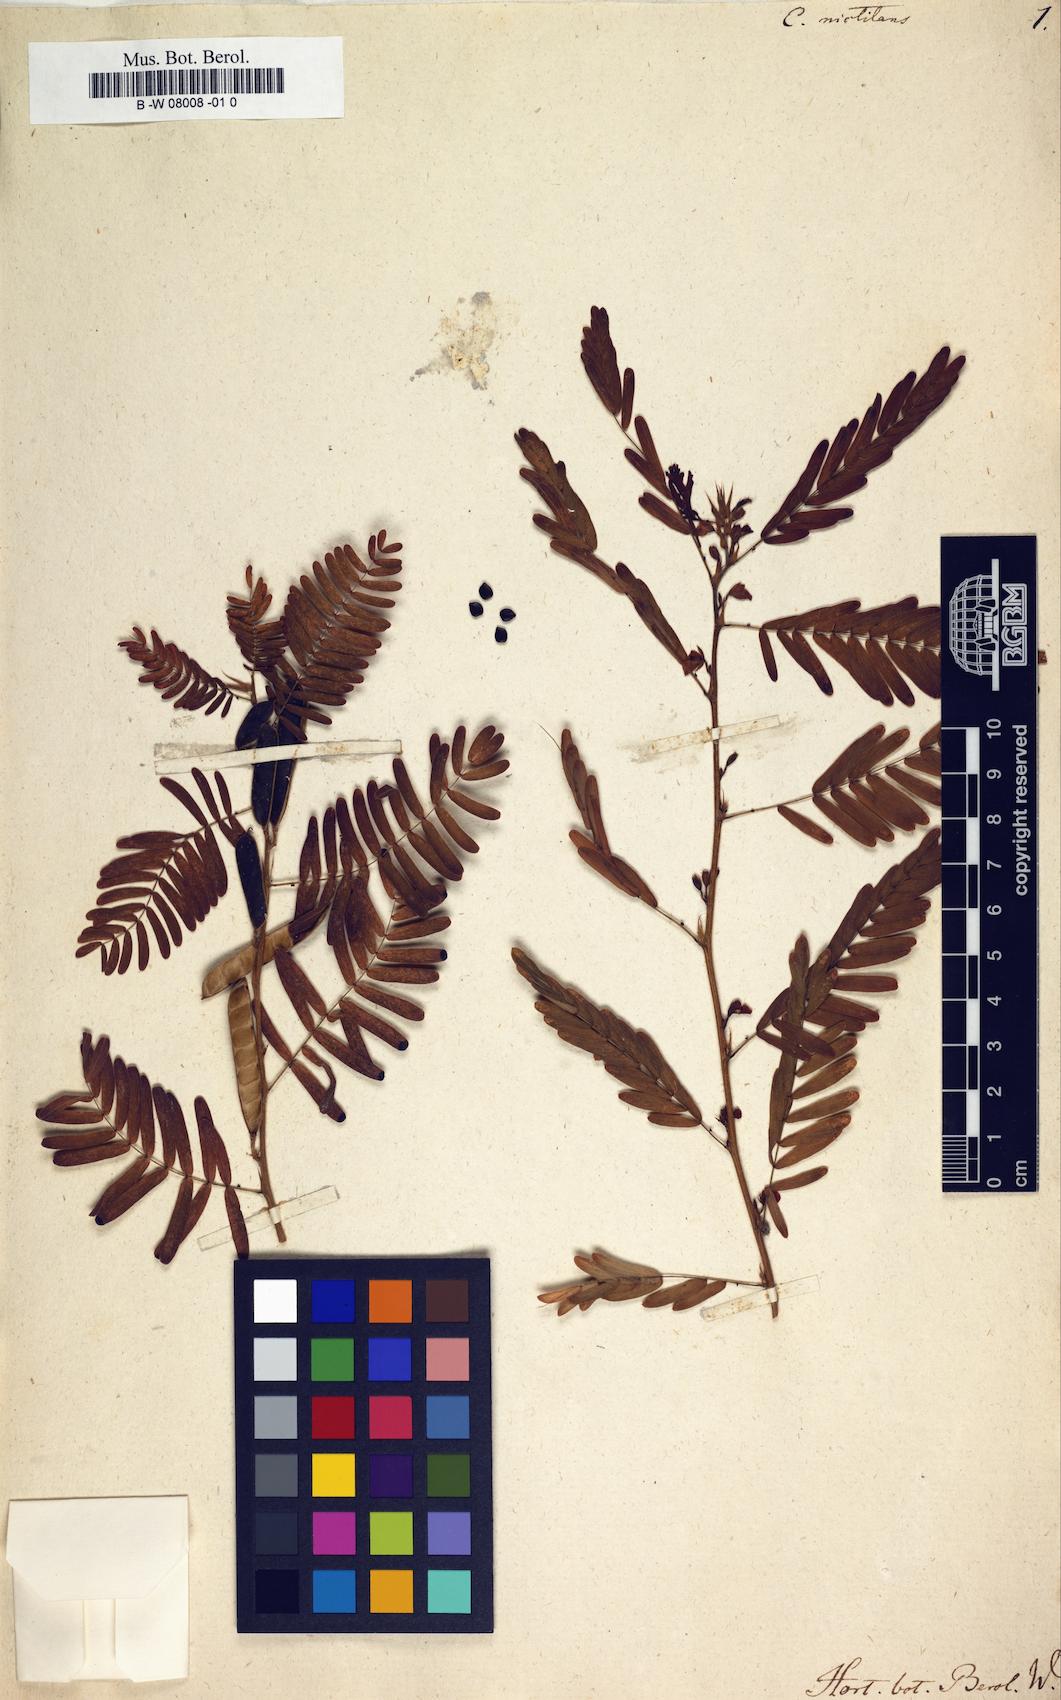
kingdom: Plantae
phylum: Tracheophyta
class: Magnoliopsida
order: Fabales
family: Fabaceae
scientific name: Fabaceae
